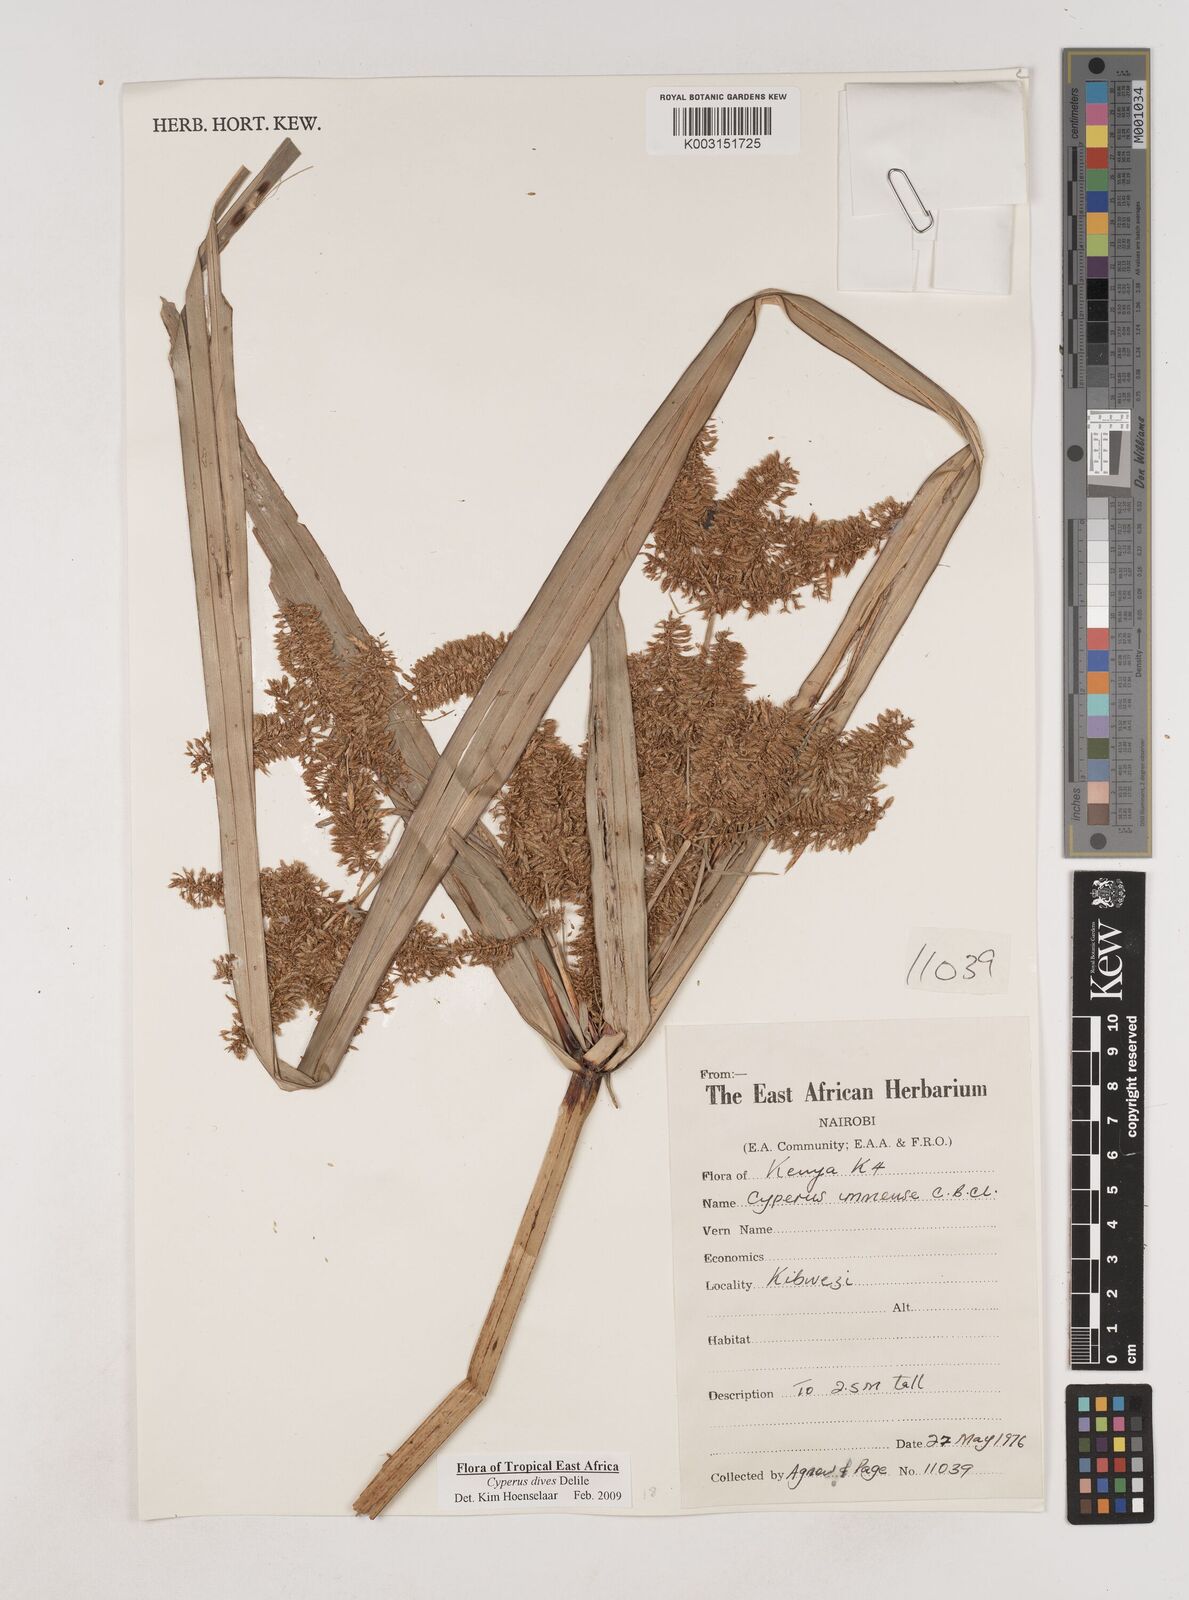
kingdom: Plantae
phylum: Tracheophyta
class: Liliopsida
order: Poales
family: Cyperaceae
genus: Cyperus
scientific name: Cyperus dives
